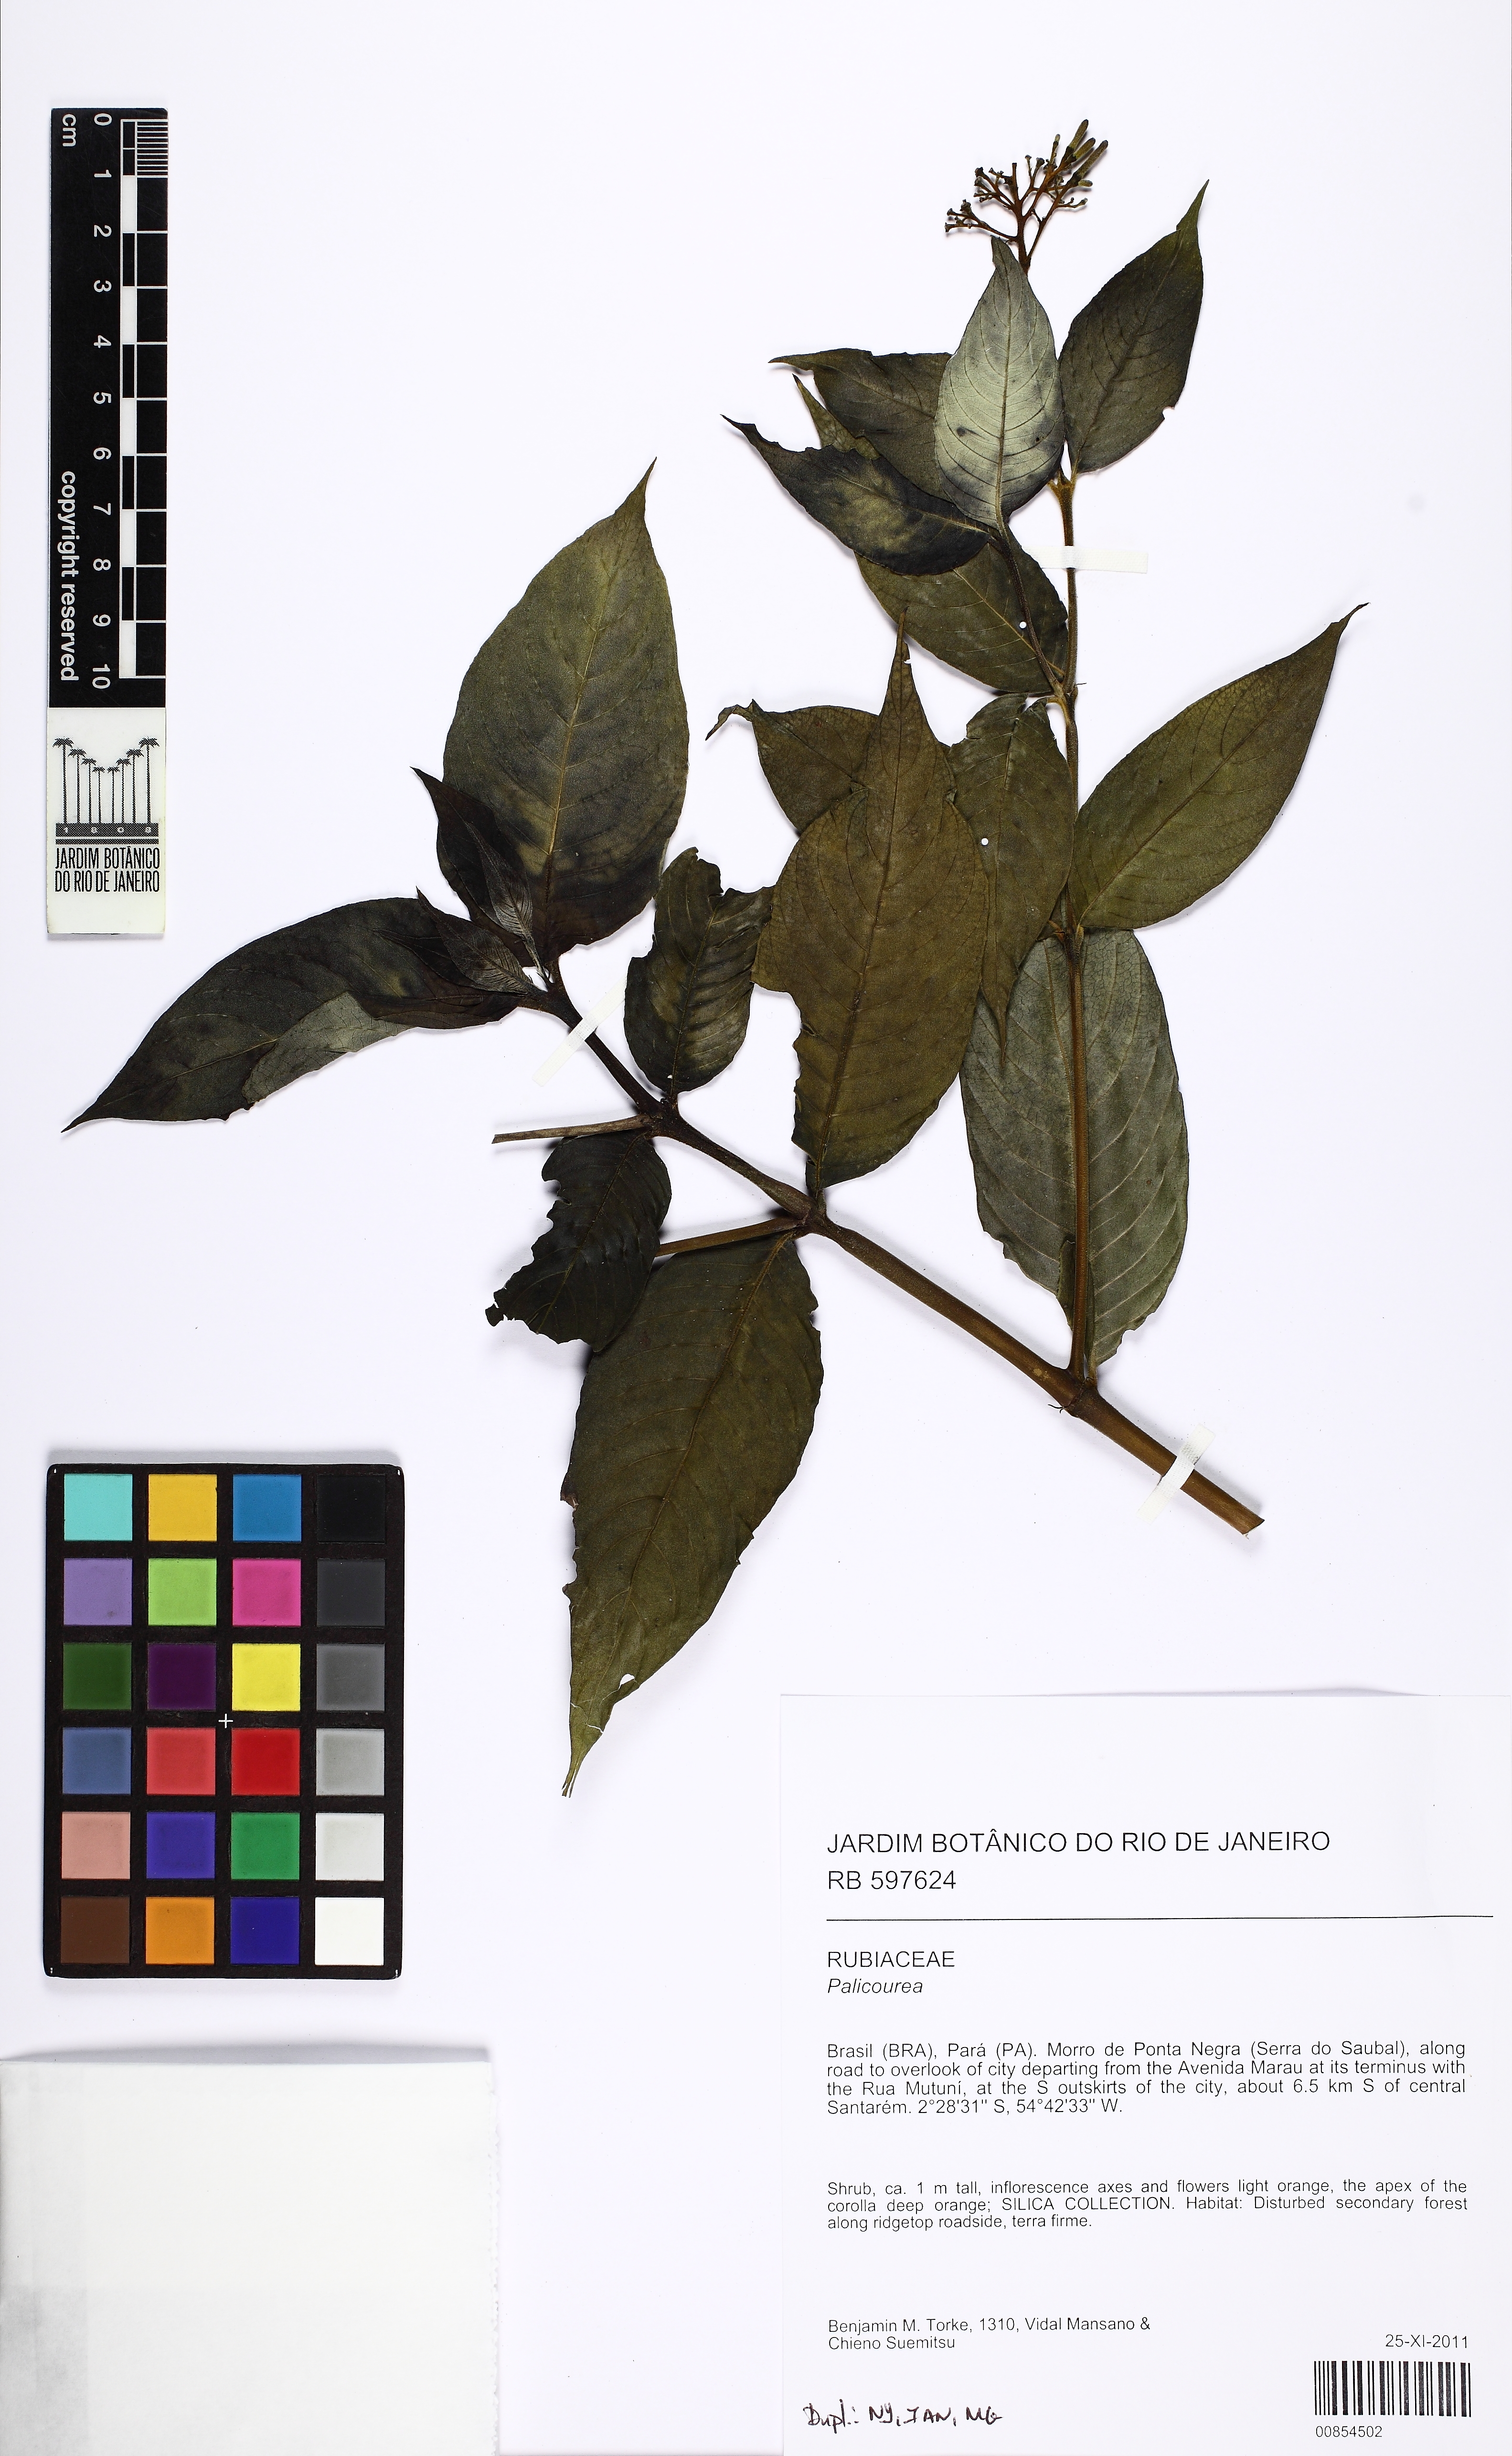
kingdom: Plantae
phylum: Tracheophyta
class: Magnoliopsida
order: Gentianales
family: Rubiaceae
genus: Palicourea
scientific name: Palicourea
